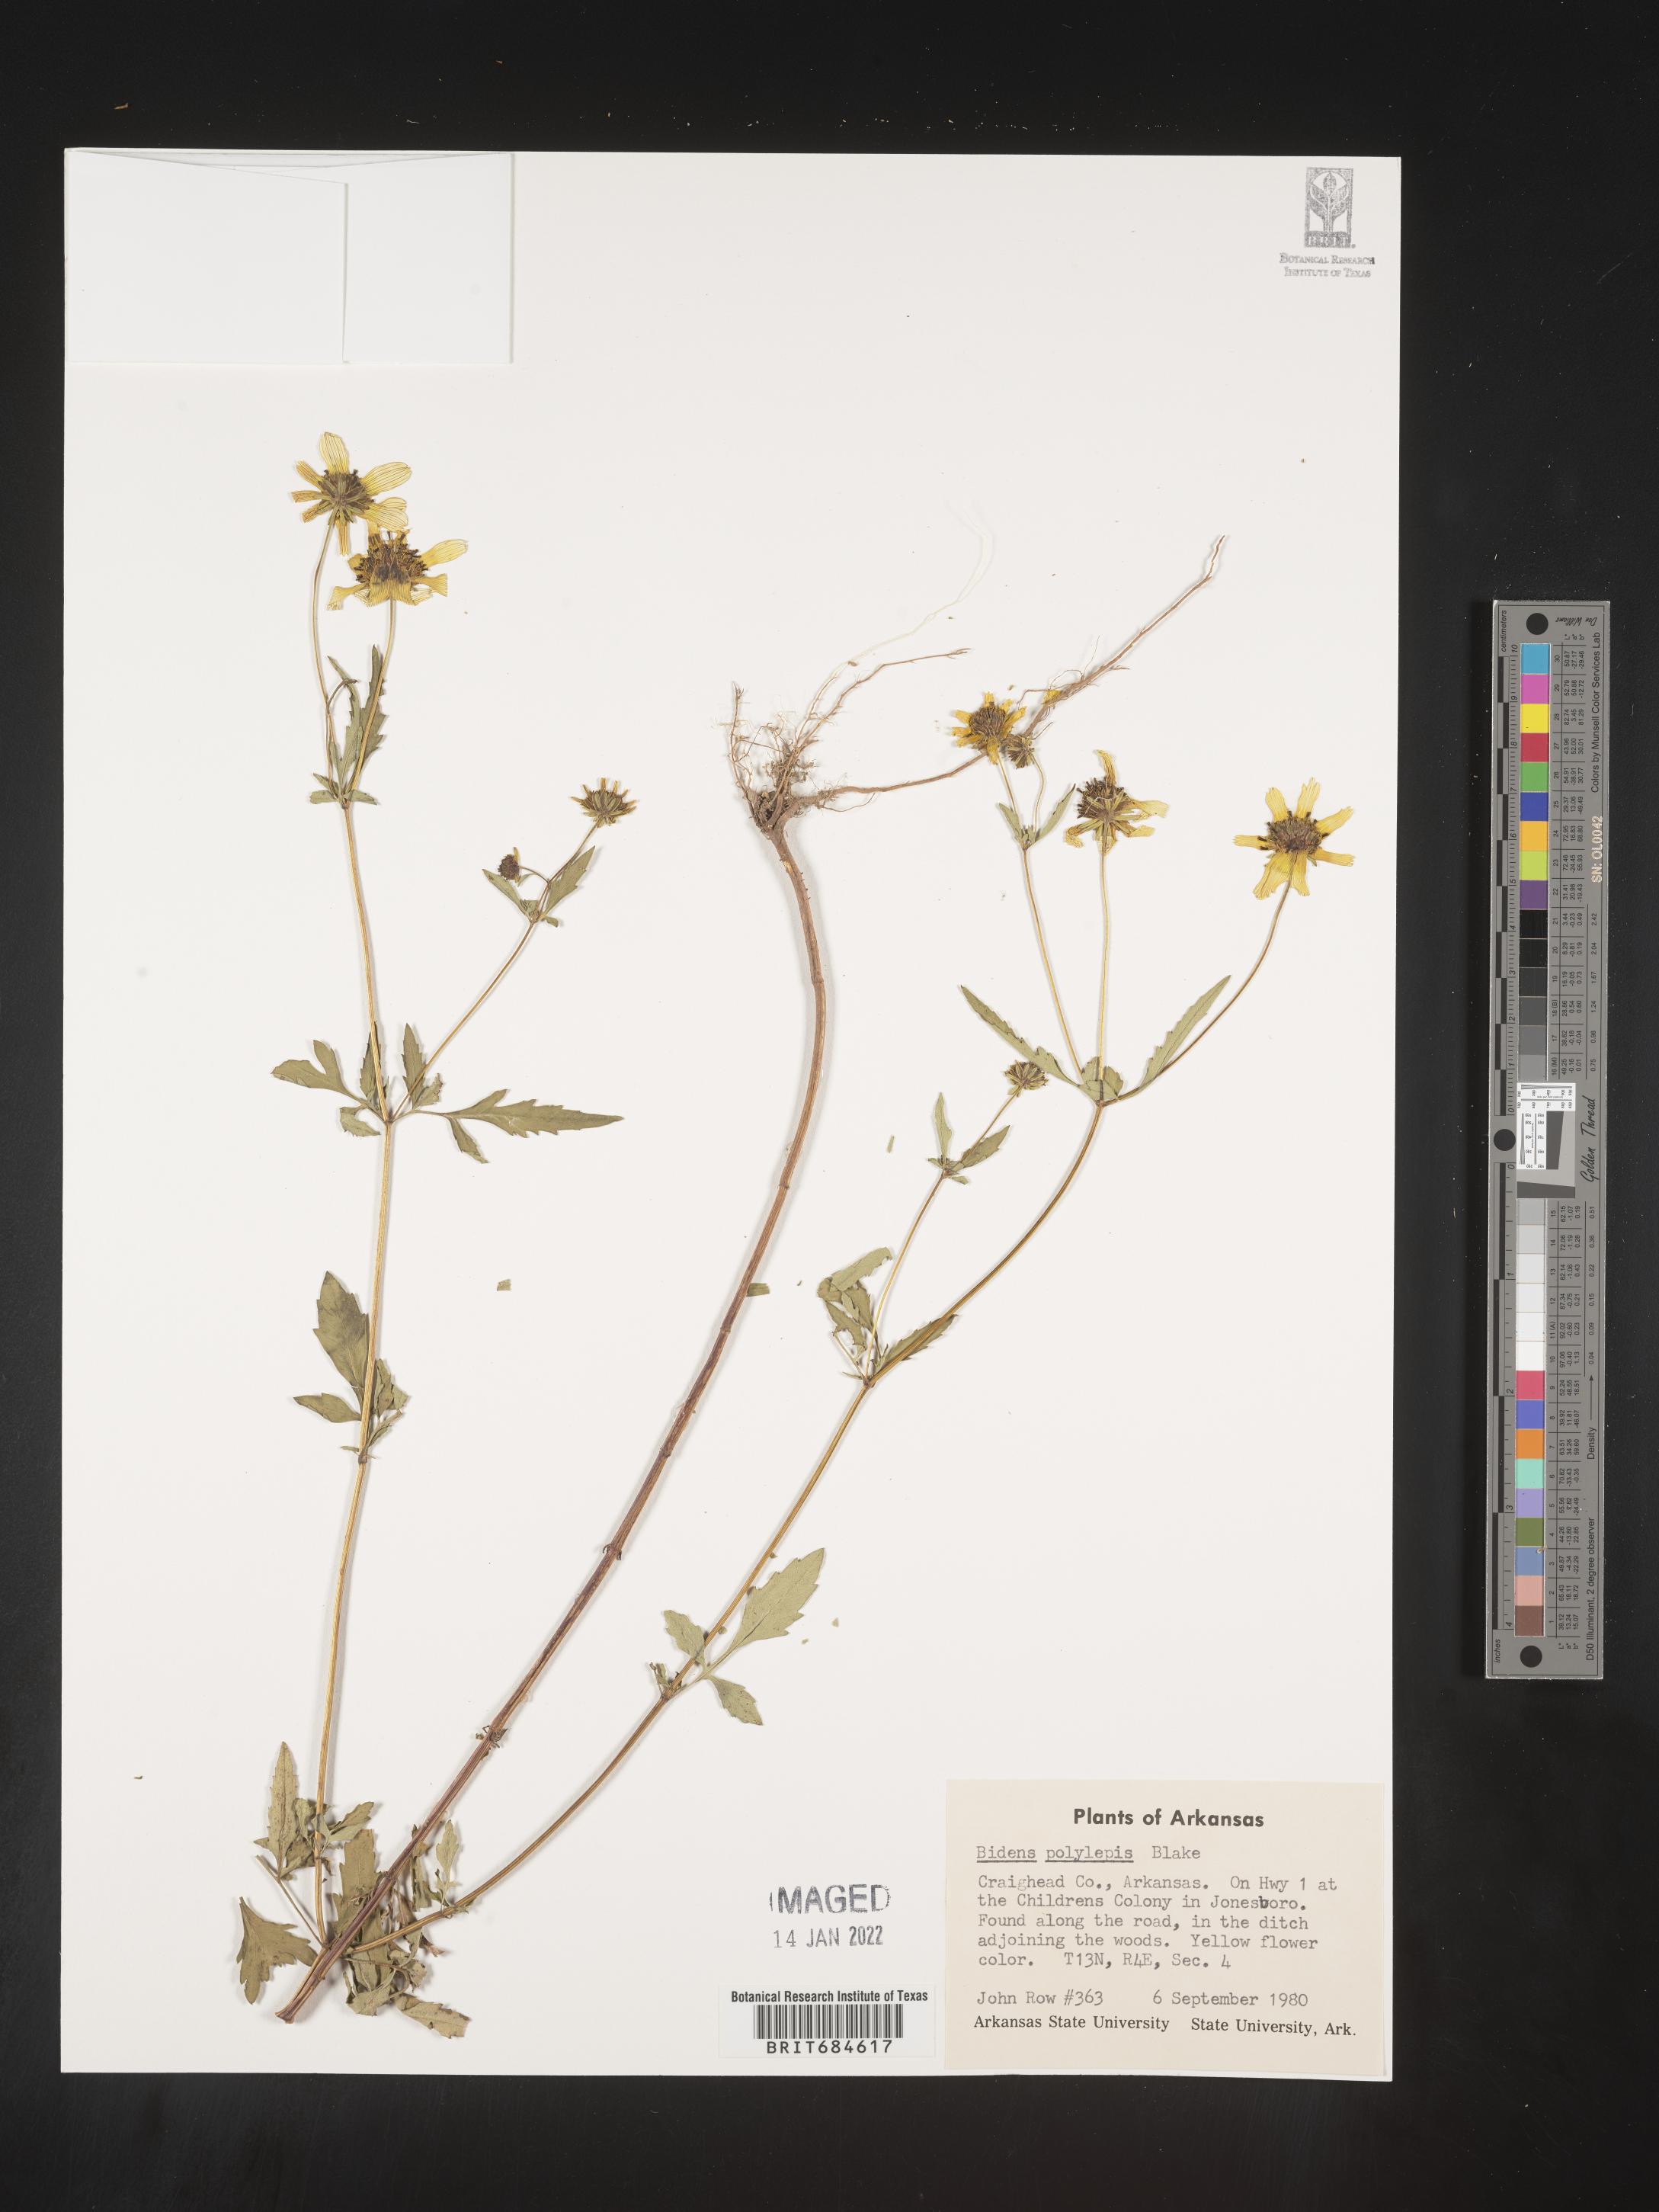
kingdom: Plantae
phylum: Tracheophyta
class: Magnoliopsida
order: Asterales
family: Asteraceae
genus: Bidens
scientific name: Bidens polylepis
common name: Awnless beggarticks
